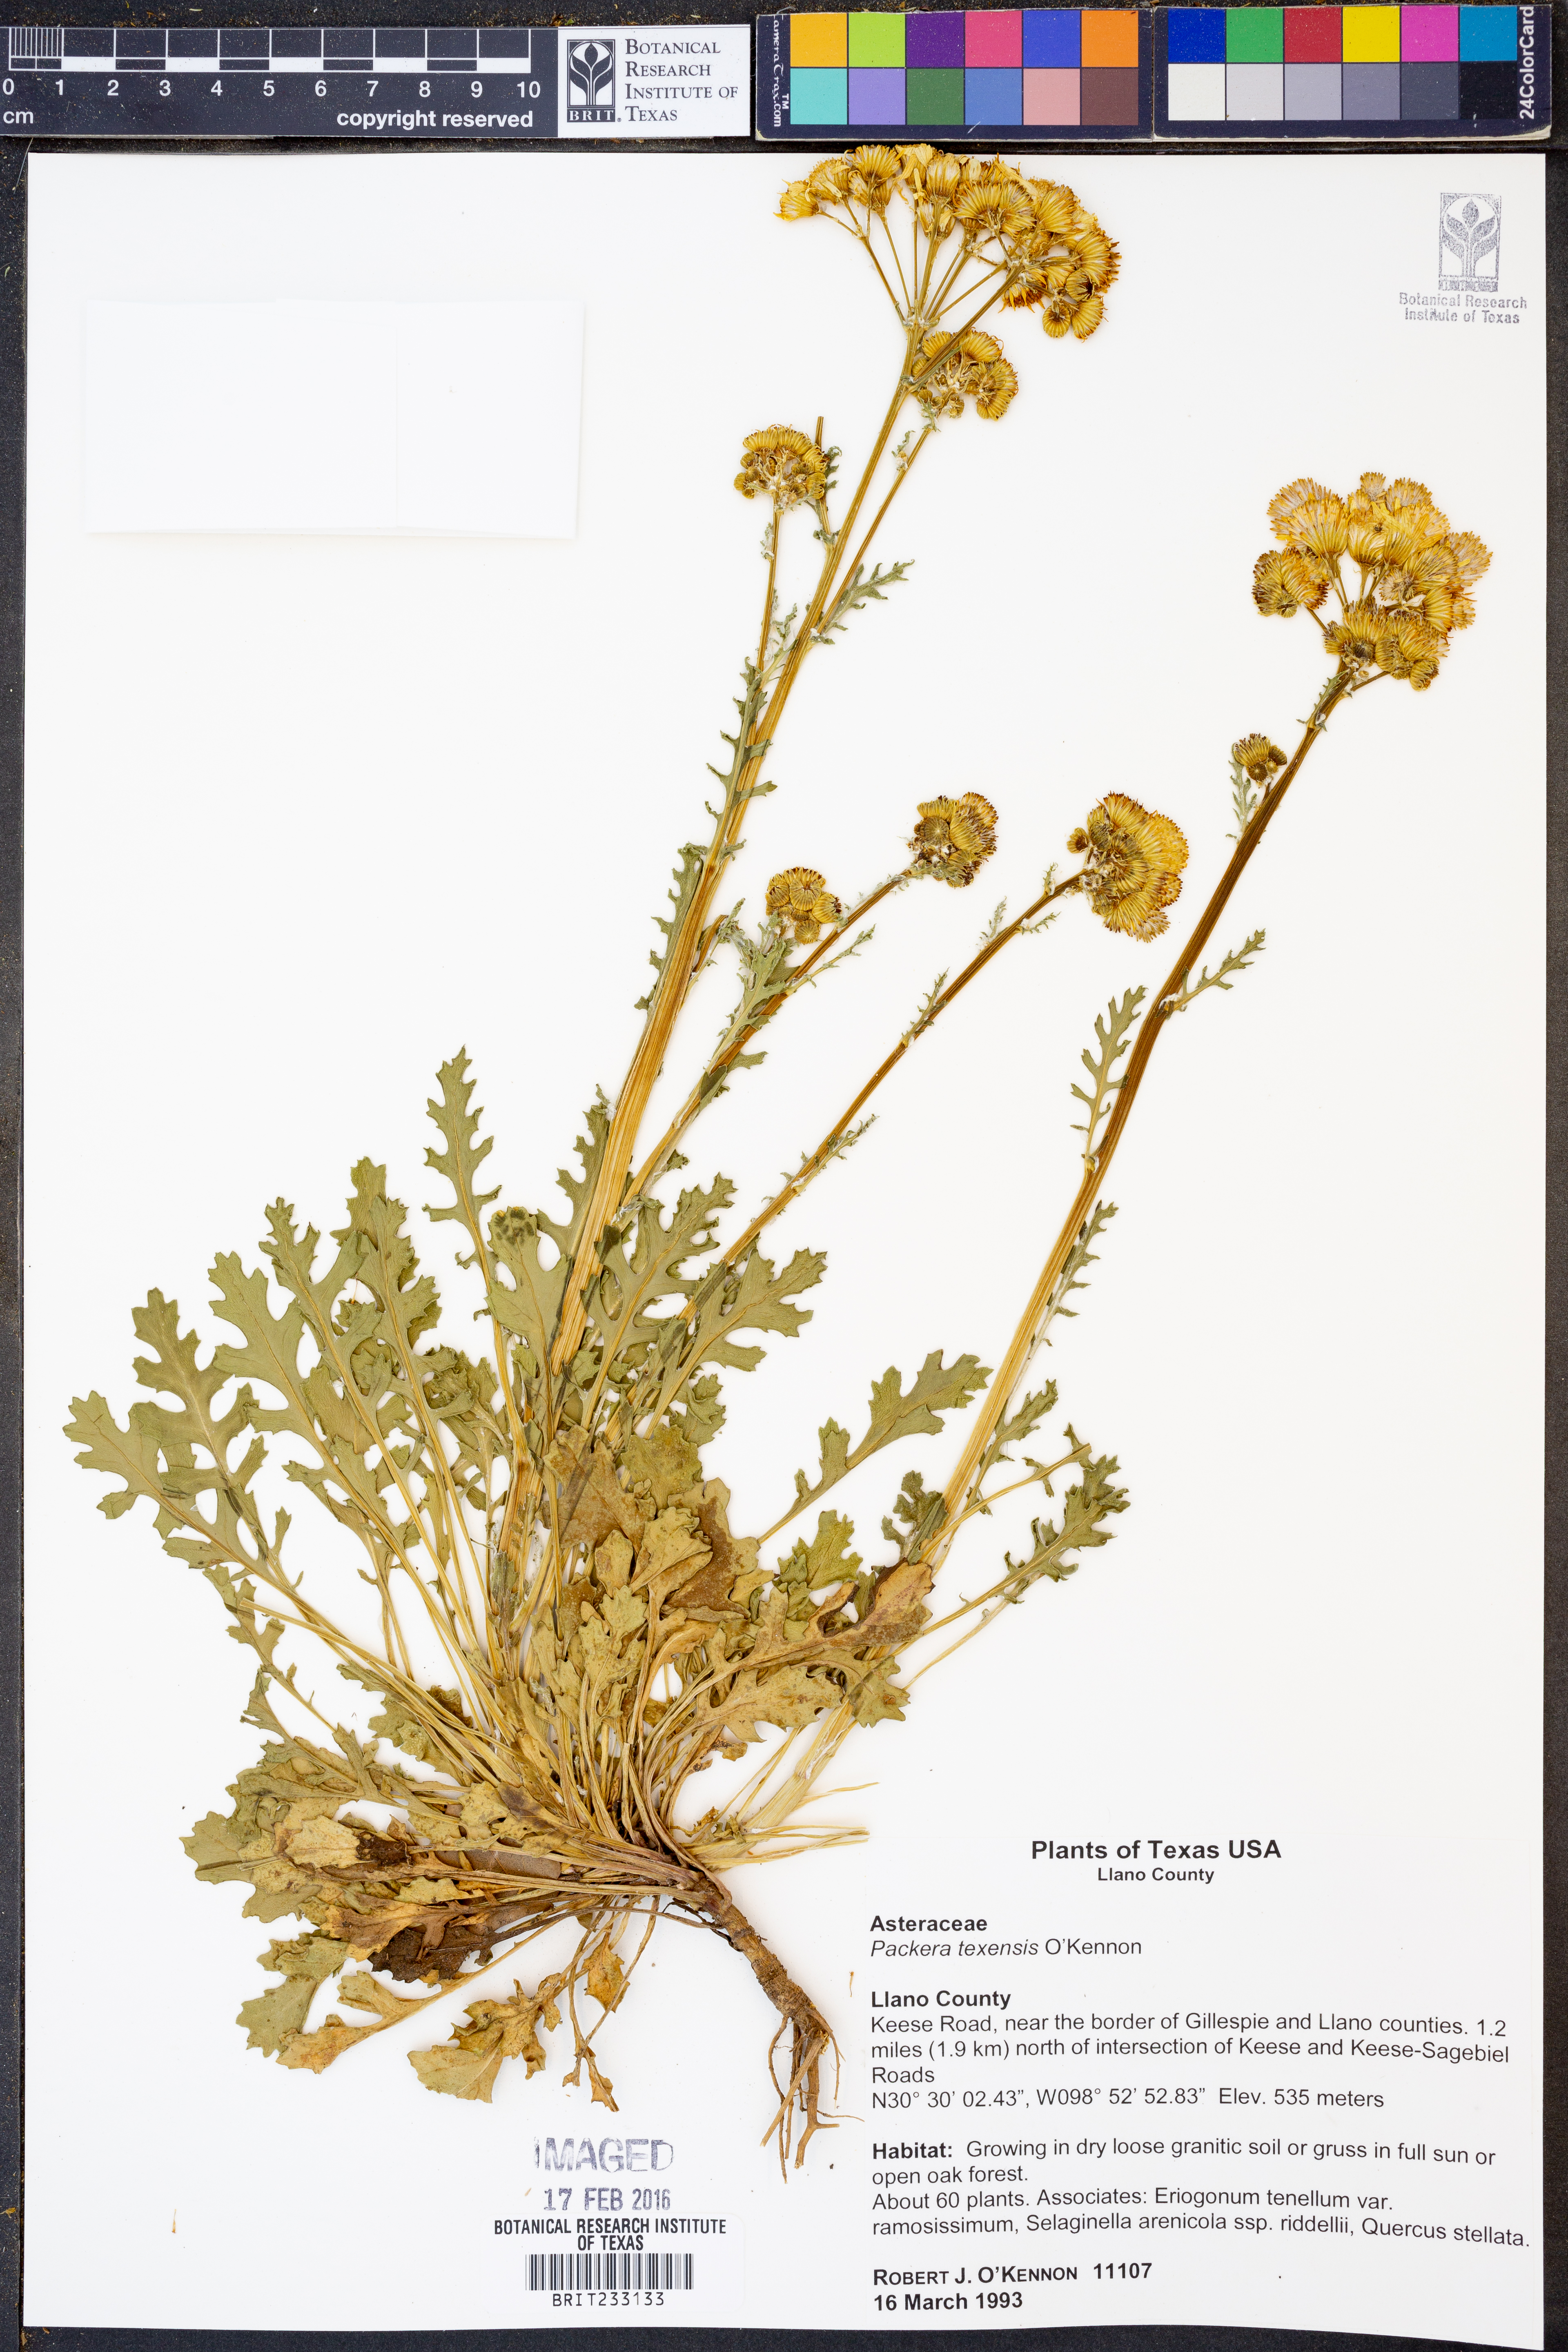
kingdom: Plantae
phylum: Tracheophyta
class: Magnoliopsida
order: Asterales
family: Asteraceae
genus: Packera
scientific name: Packera texensis
